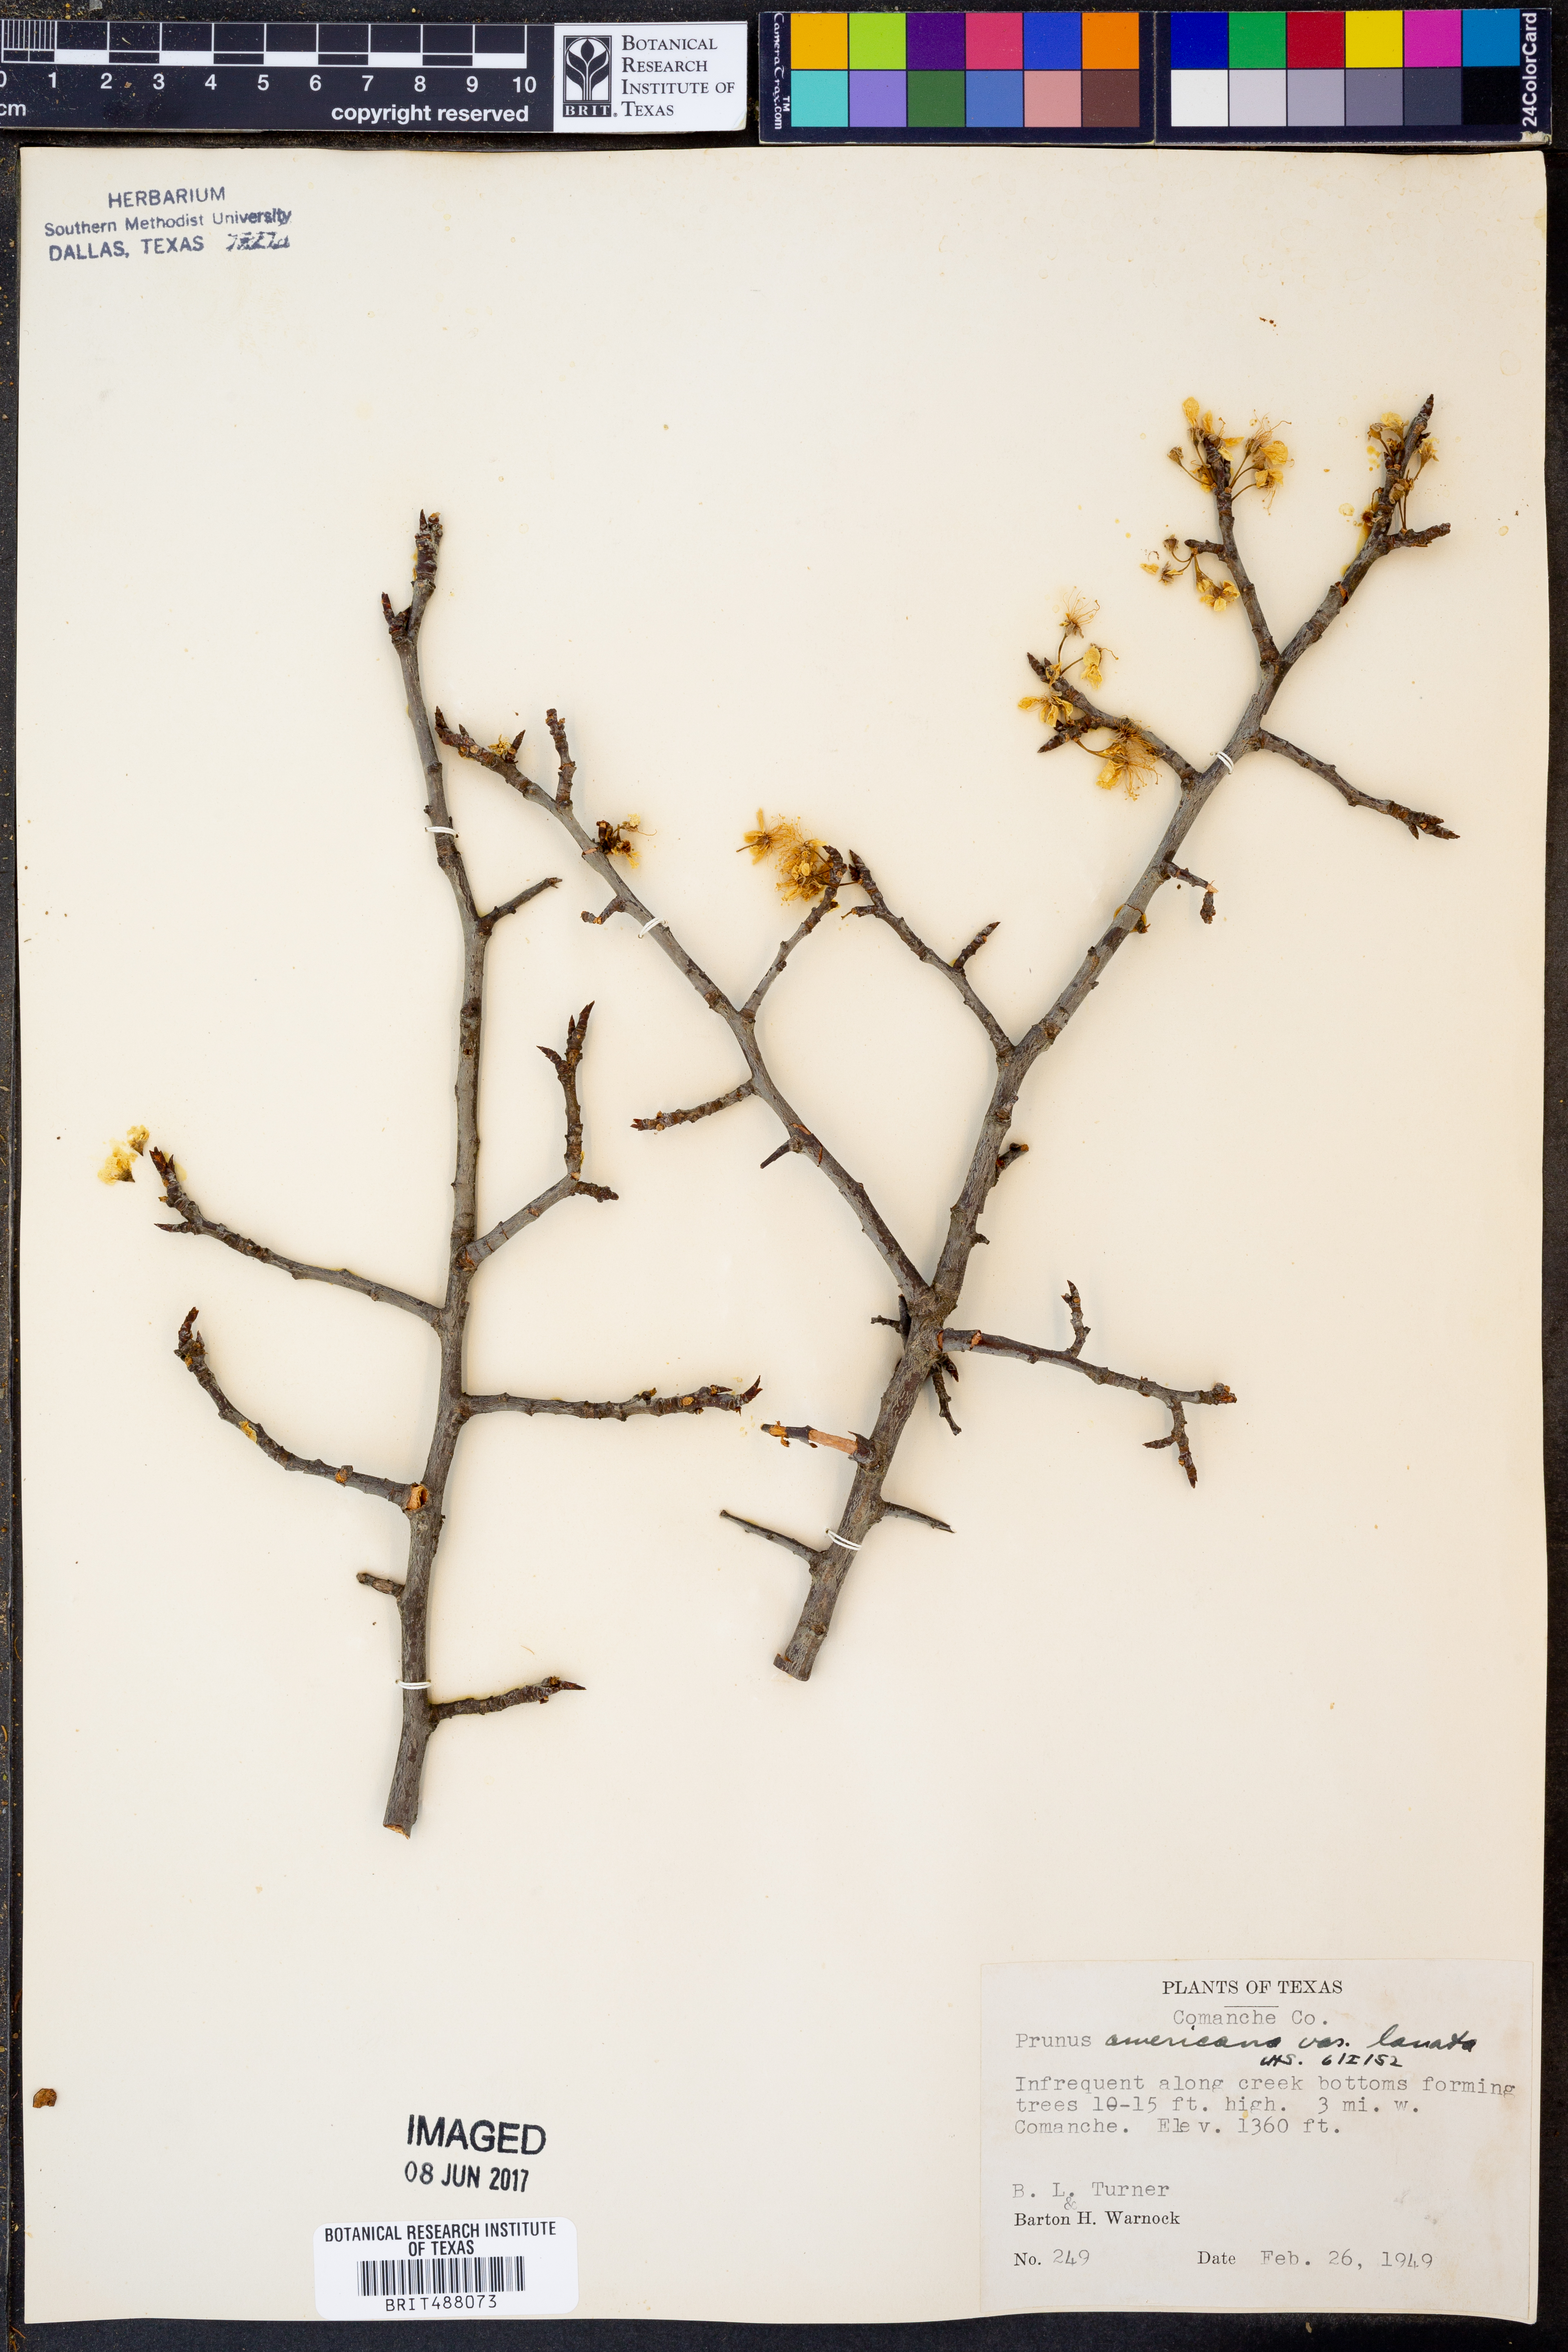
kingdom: Plantae
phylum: Tracheophyta
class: Magnoliopsida
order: Rosales
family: Rosaceae
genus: Prunus
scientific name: Prunus mexicana
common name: Mexican plum
